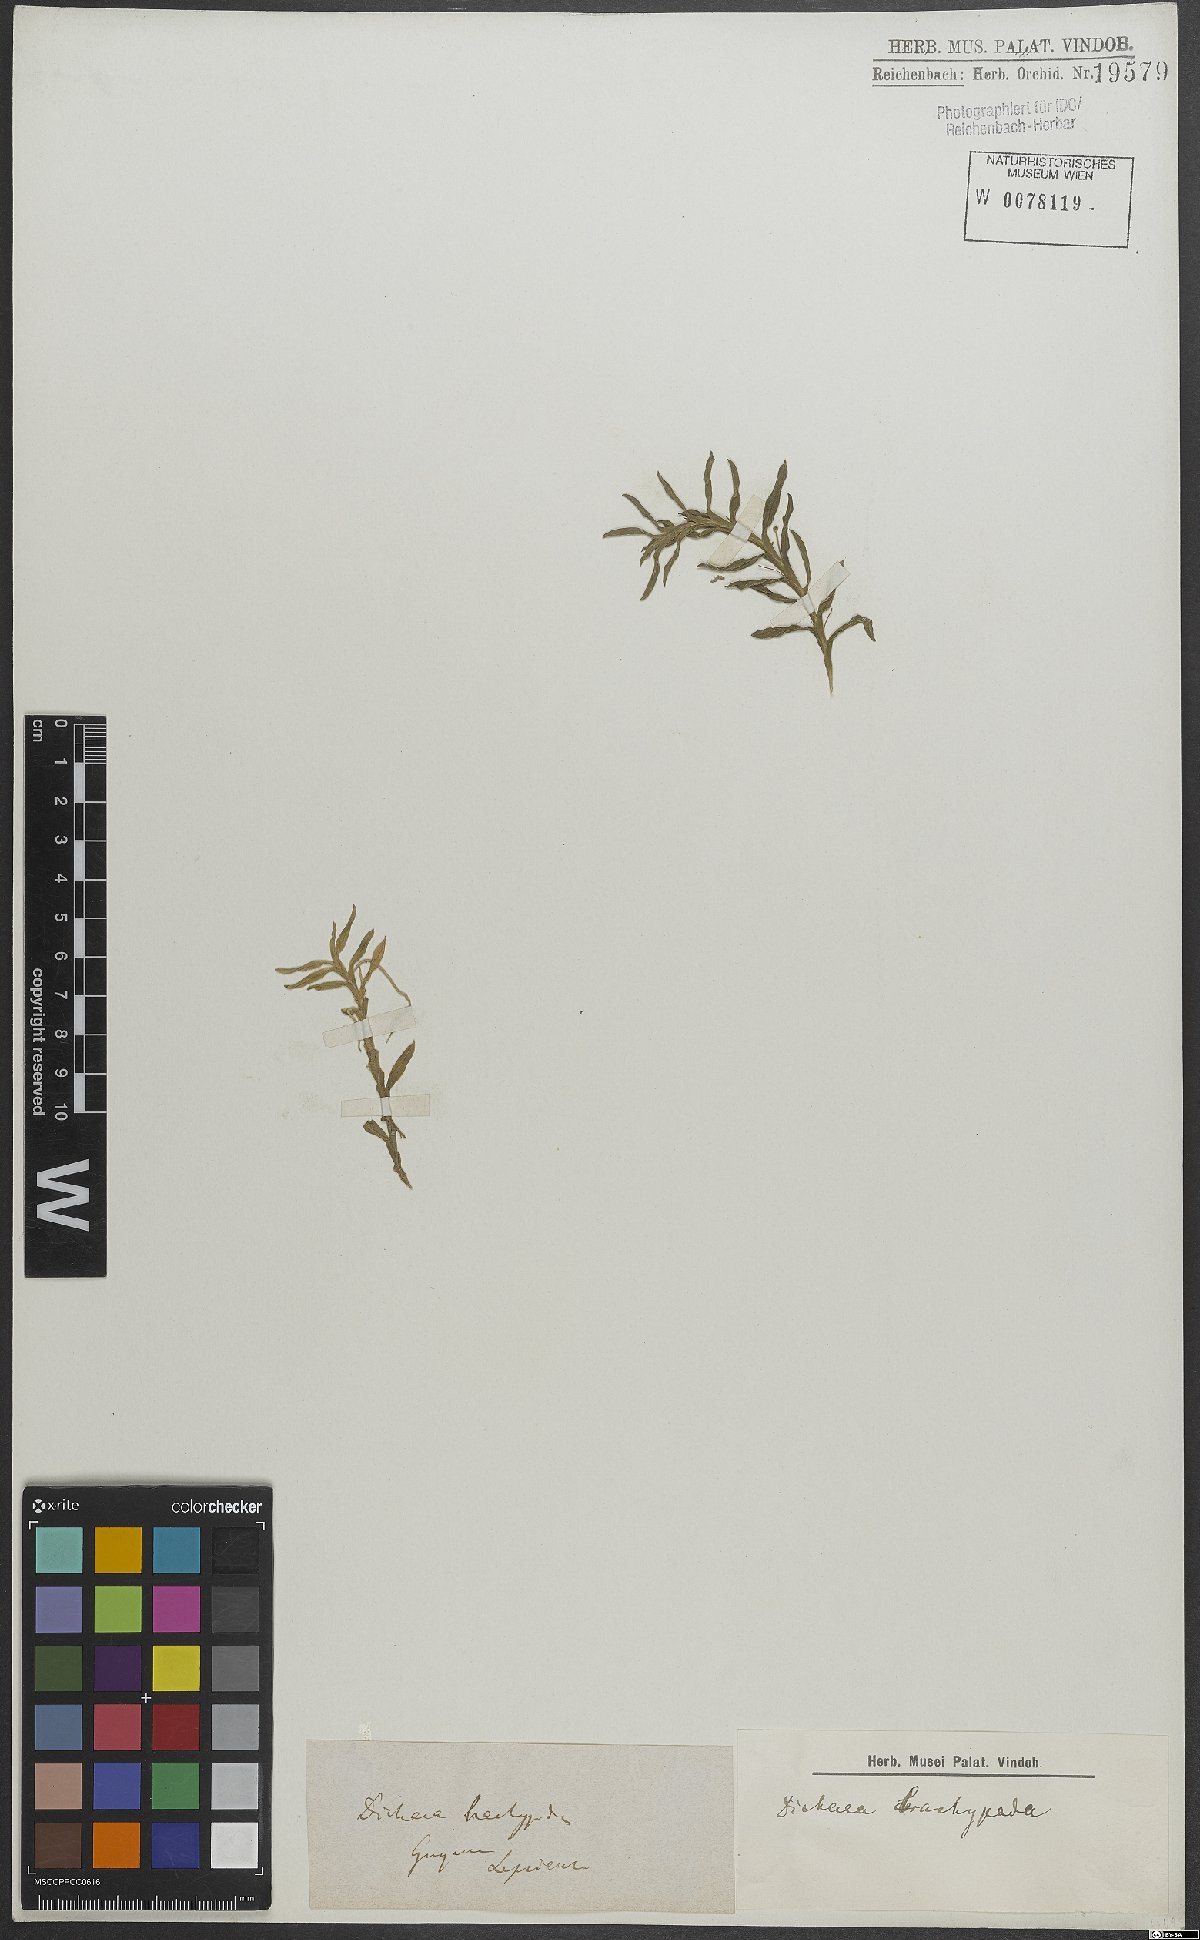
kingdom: Plantae
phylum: Tracheophyta
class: Liliopsida
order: Asparagales
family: Orchidaceae
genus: Dichaea
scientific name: Dichaea panamensis
